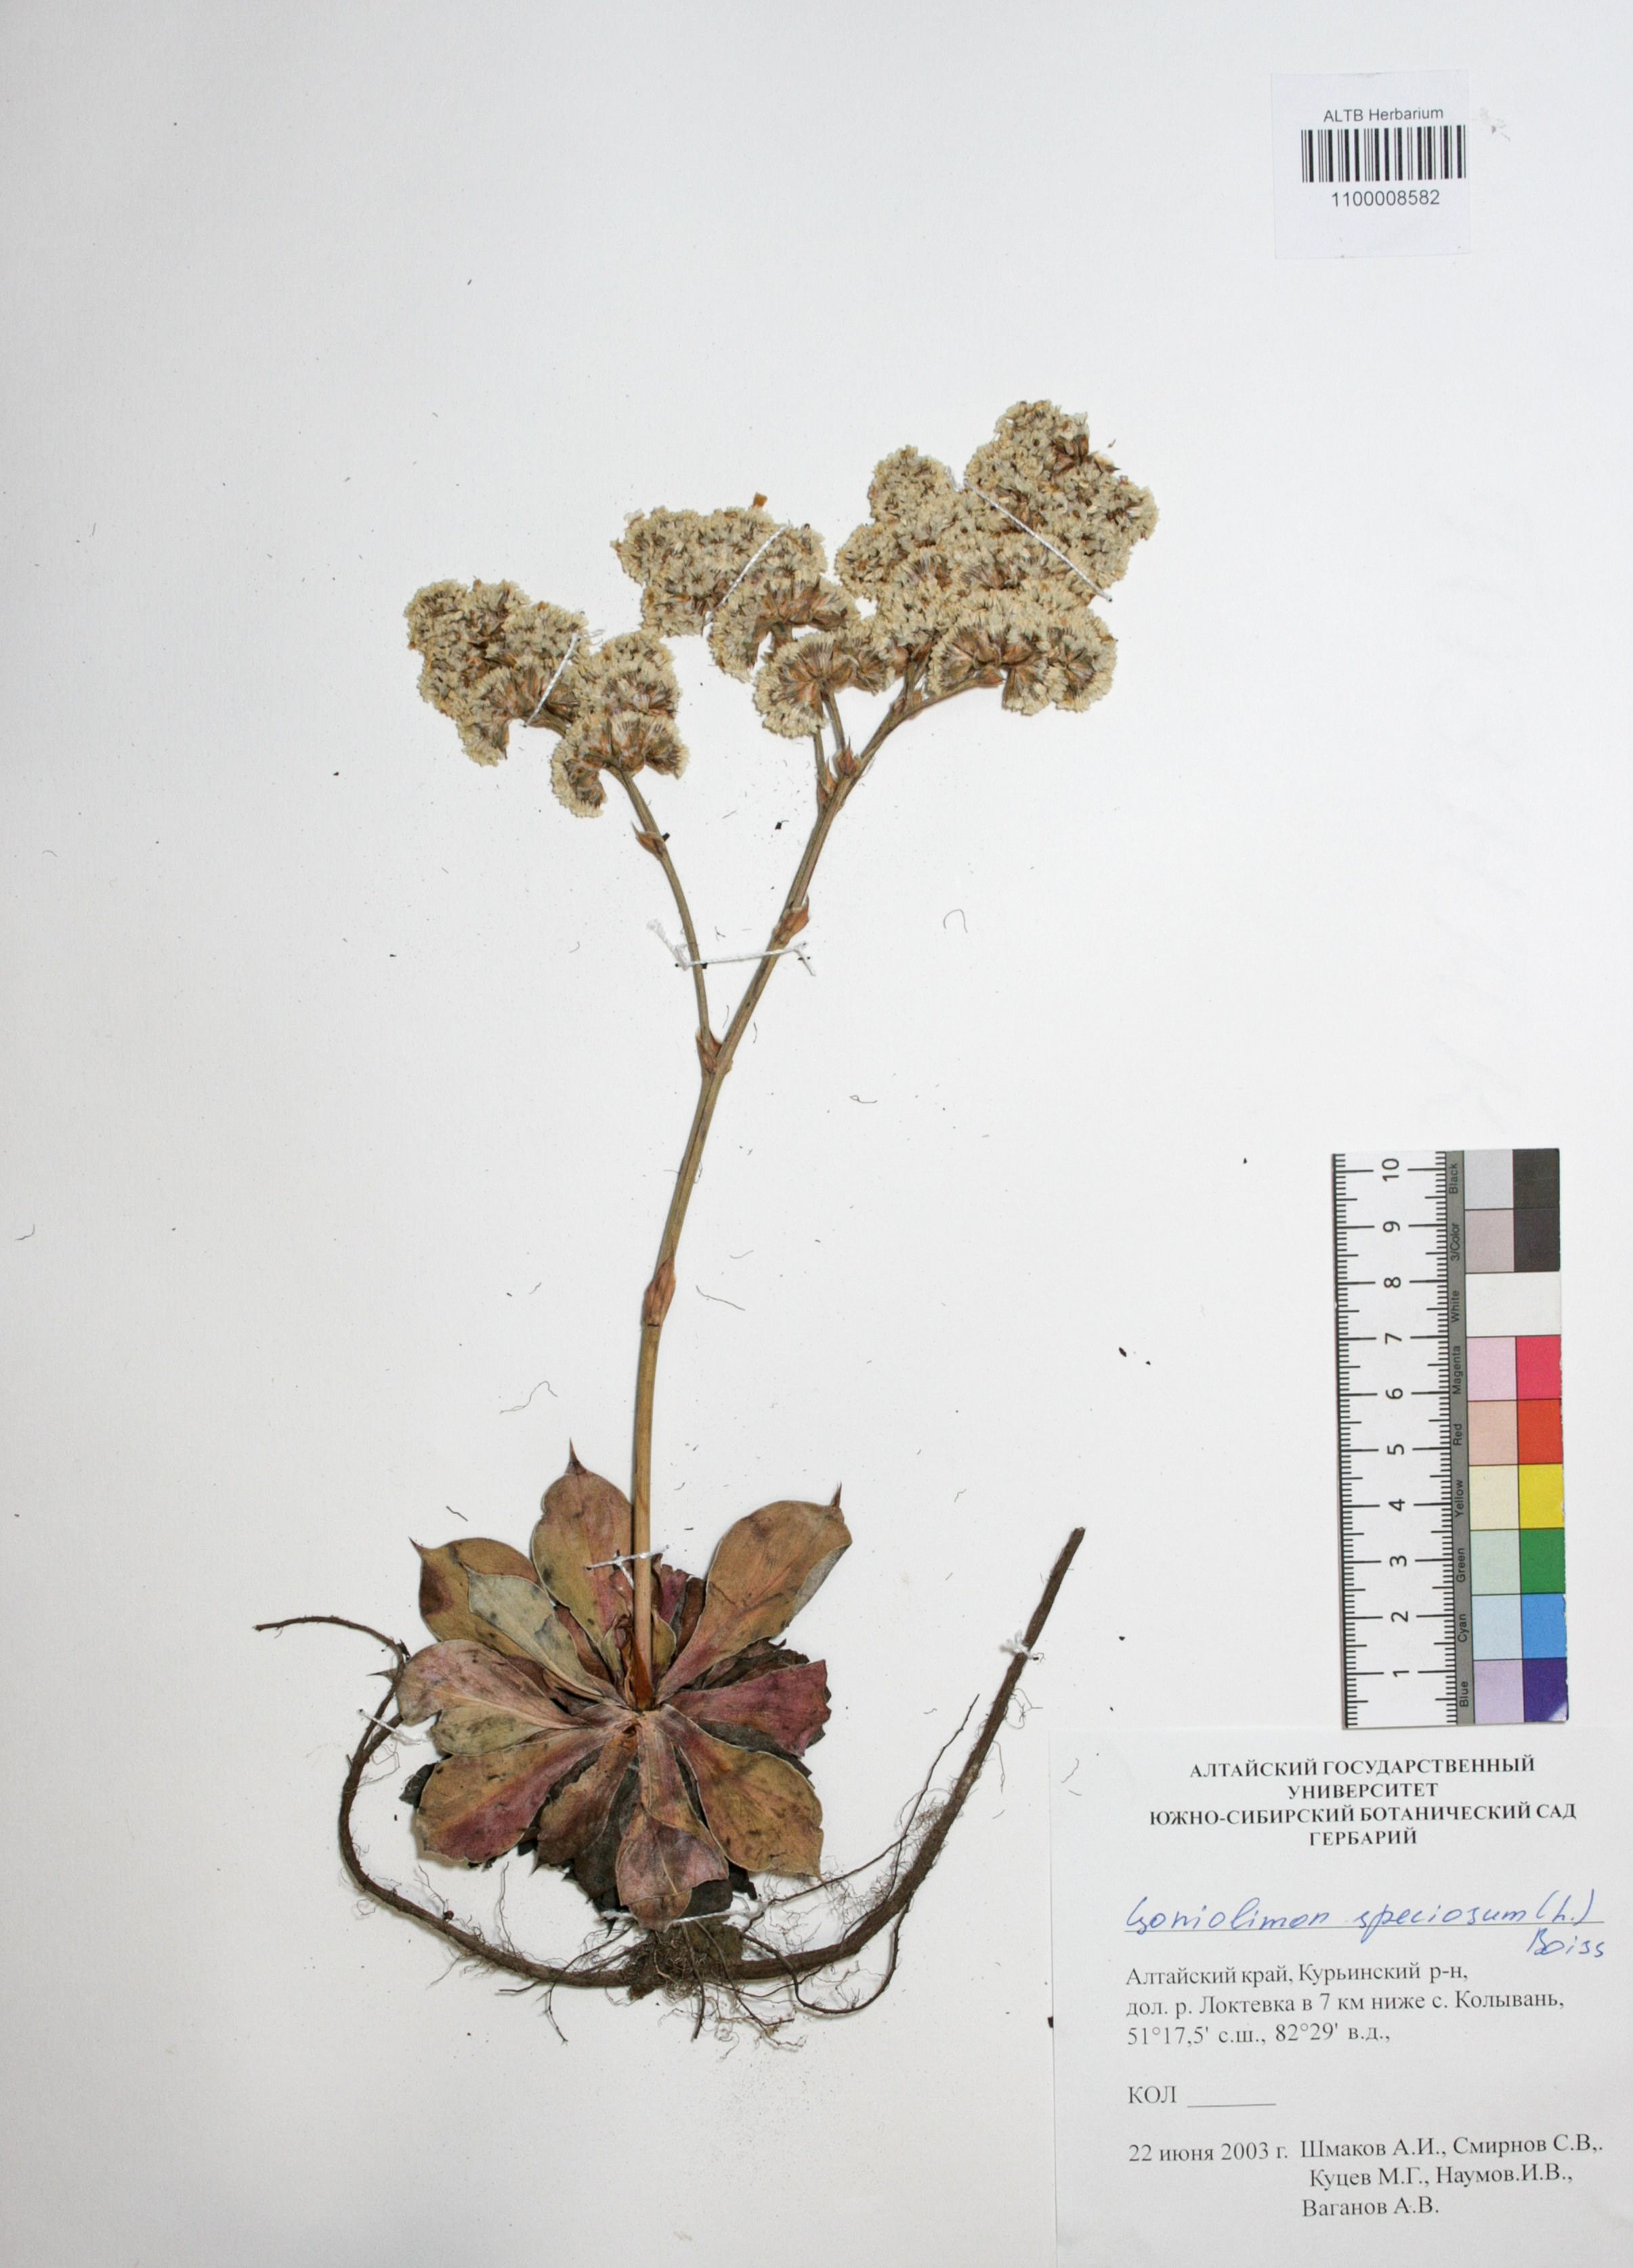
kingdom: Plantae
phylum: Tracheophyta
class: Magnoliopsida
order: Caryophyllales
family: Plumbaginaceae
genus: Goniolimon
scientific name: Goniolimon speciosum
